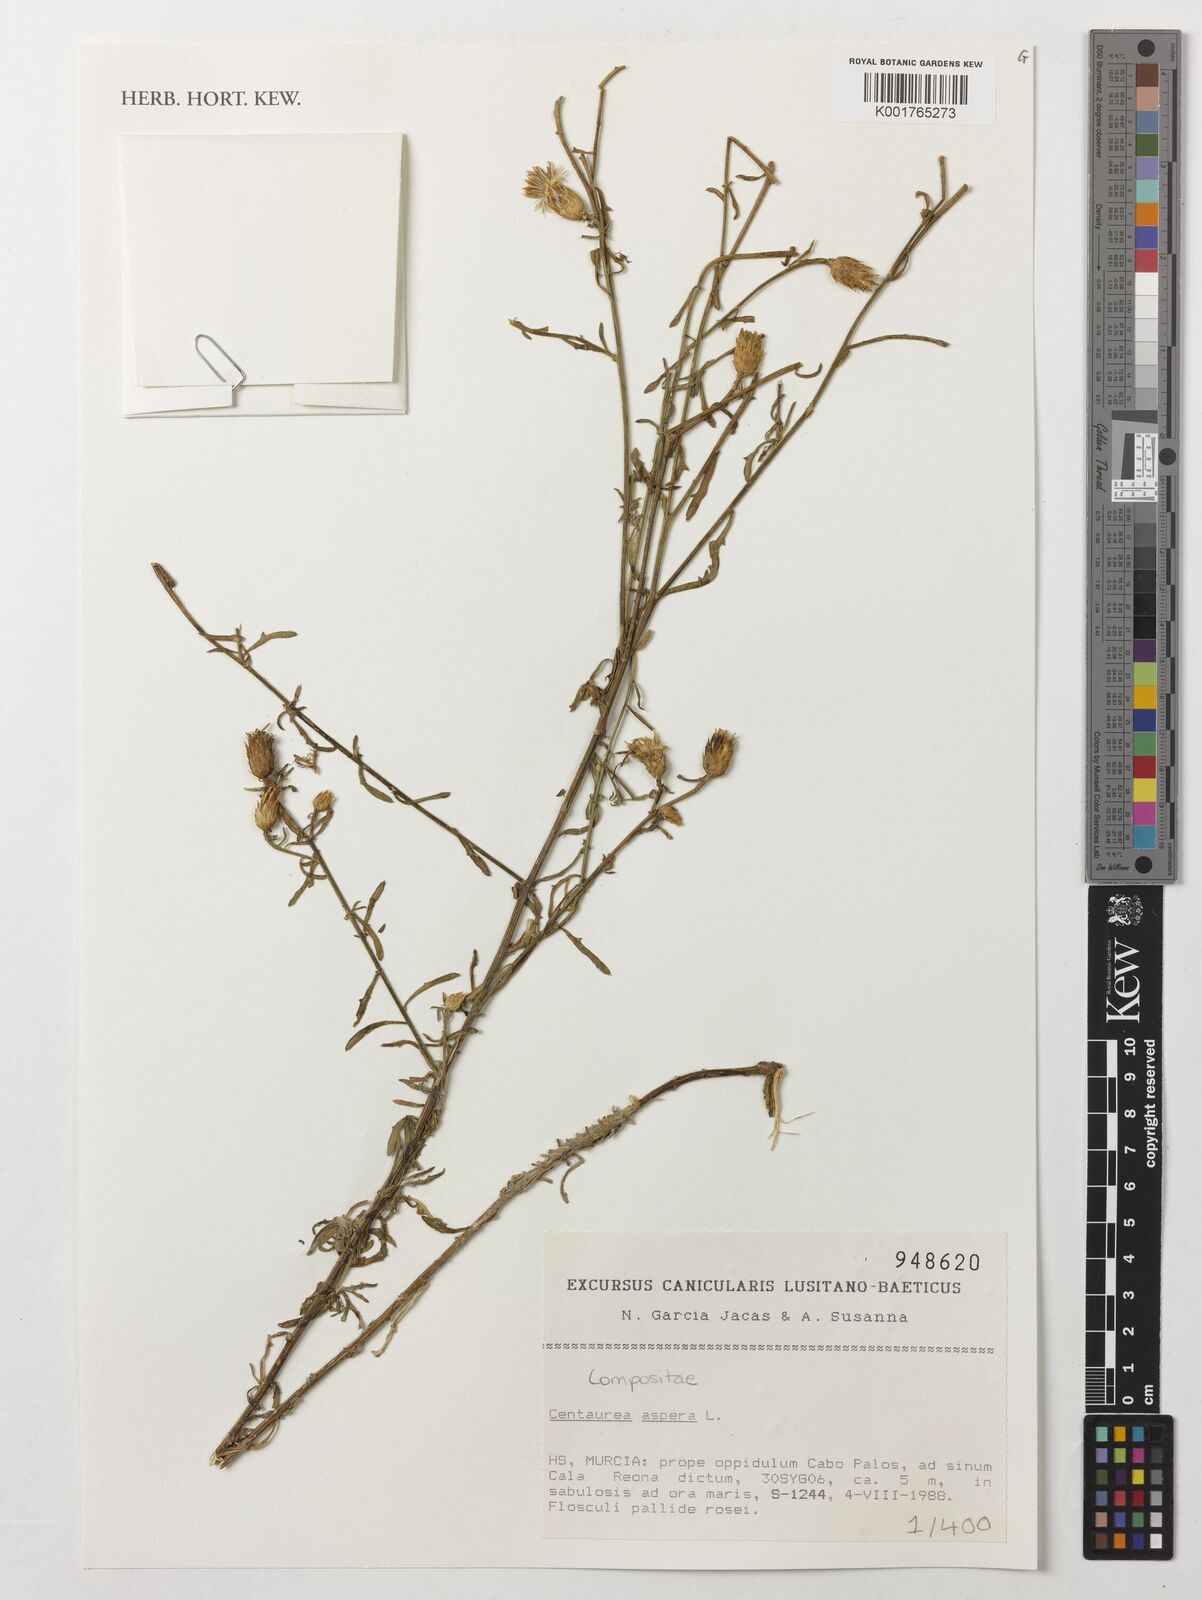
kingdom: Plantae
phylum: Tracheophyta
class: Magnoliopsida
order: Asterales
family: Asteraceae
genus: Centaurea
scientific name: Centaurea aspera
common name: Rough star-thistle
